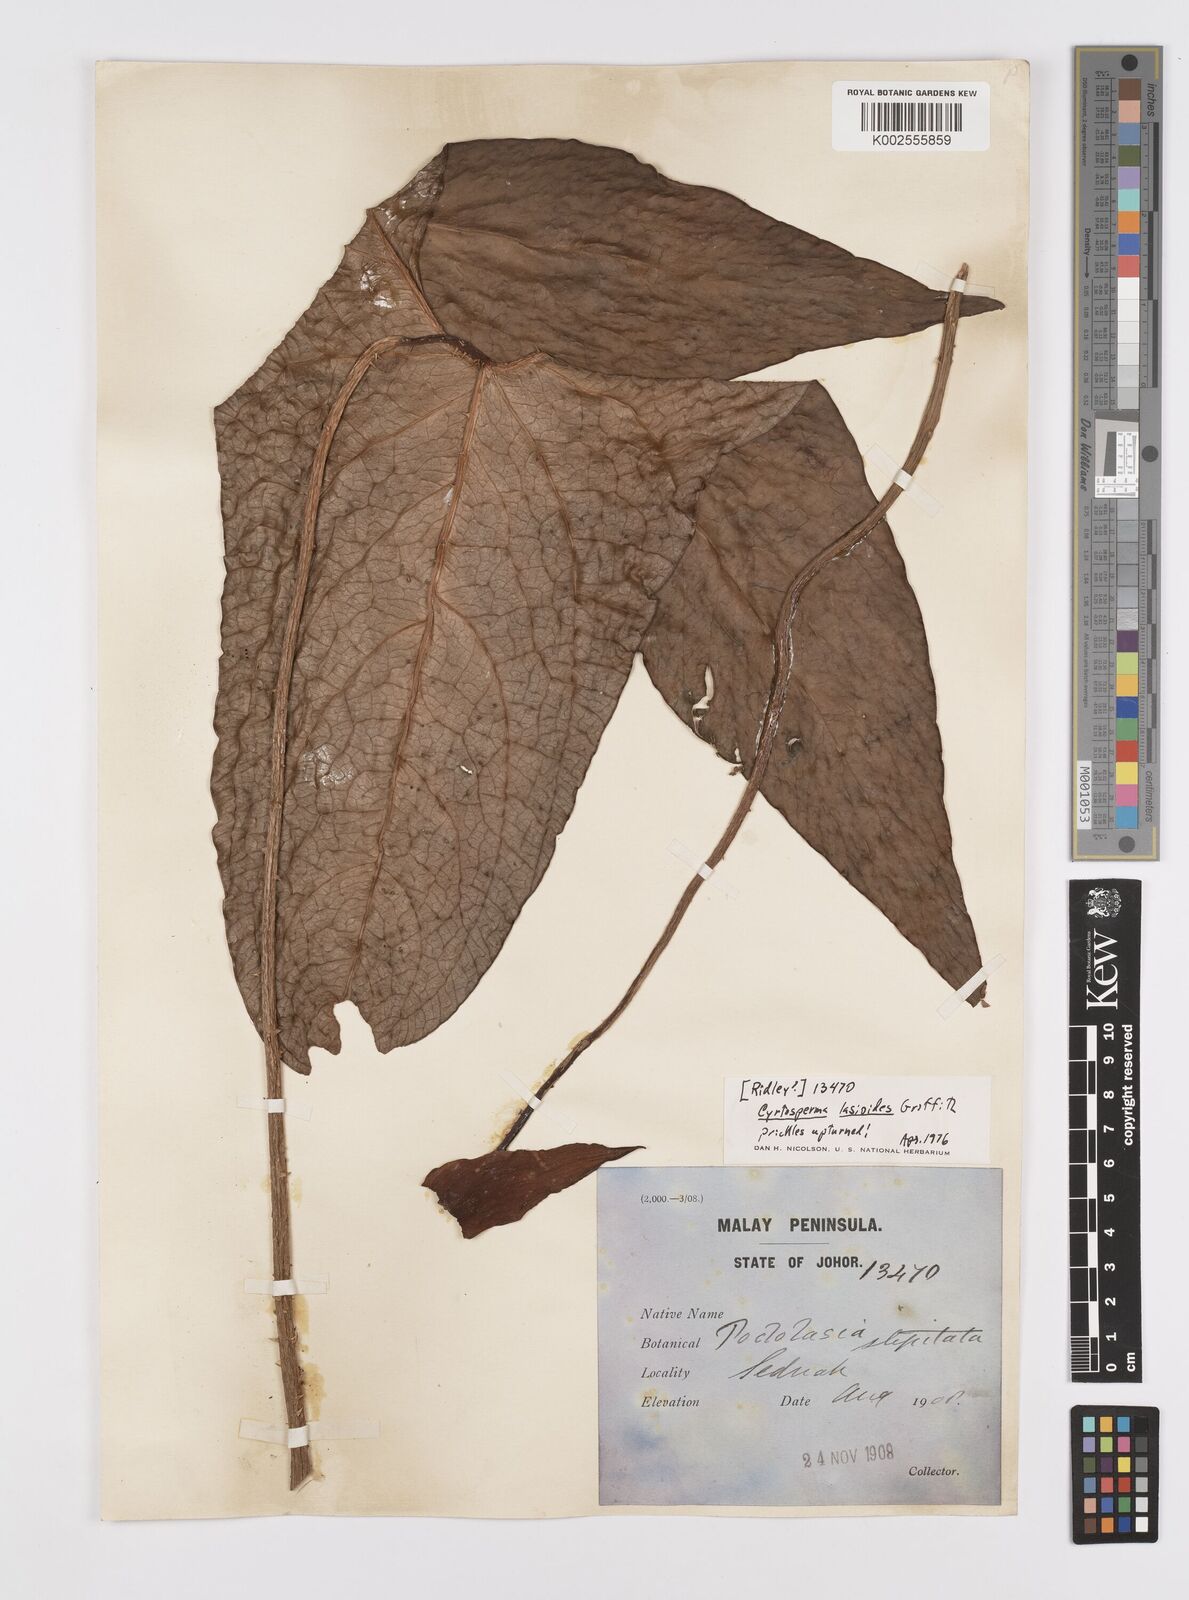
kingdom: Plantae
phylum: Tracheophyta
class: Liliopsida
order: Alismatales
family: Araceae
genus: Cyrtosperma
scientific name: Cyrtosperma merkusii
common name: Giant swamp-taro
